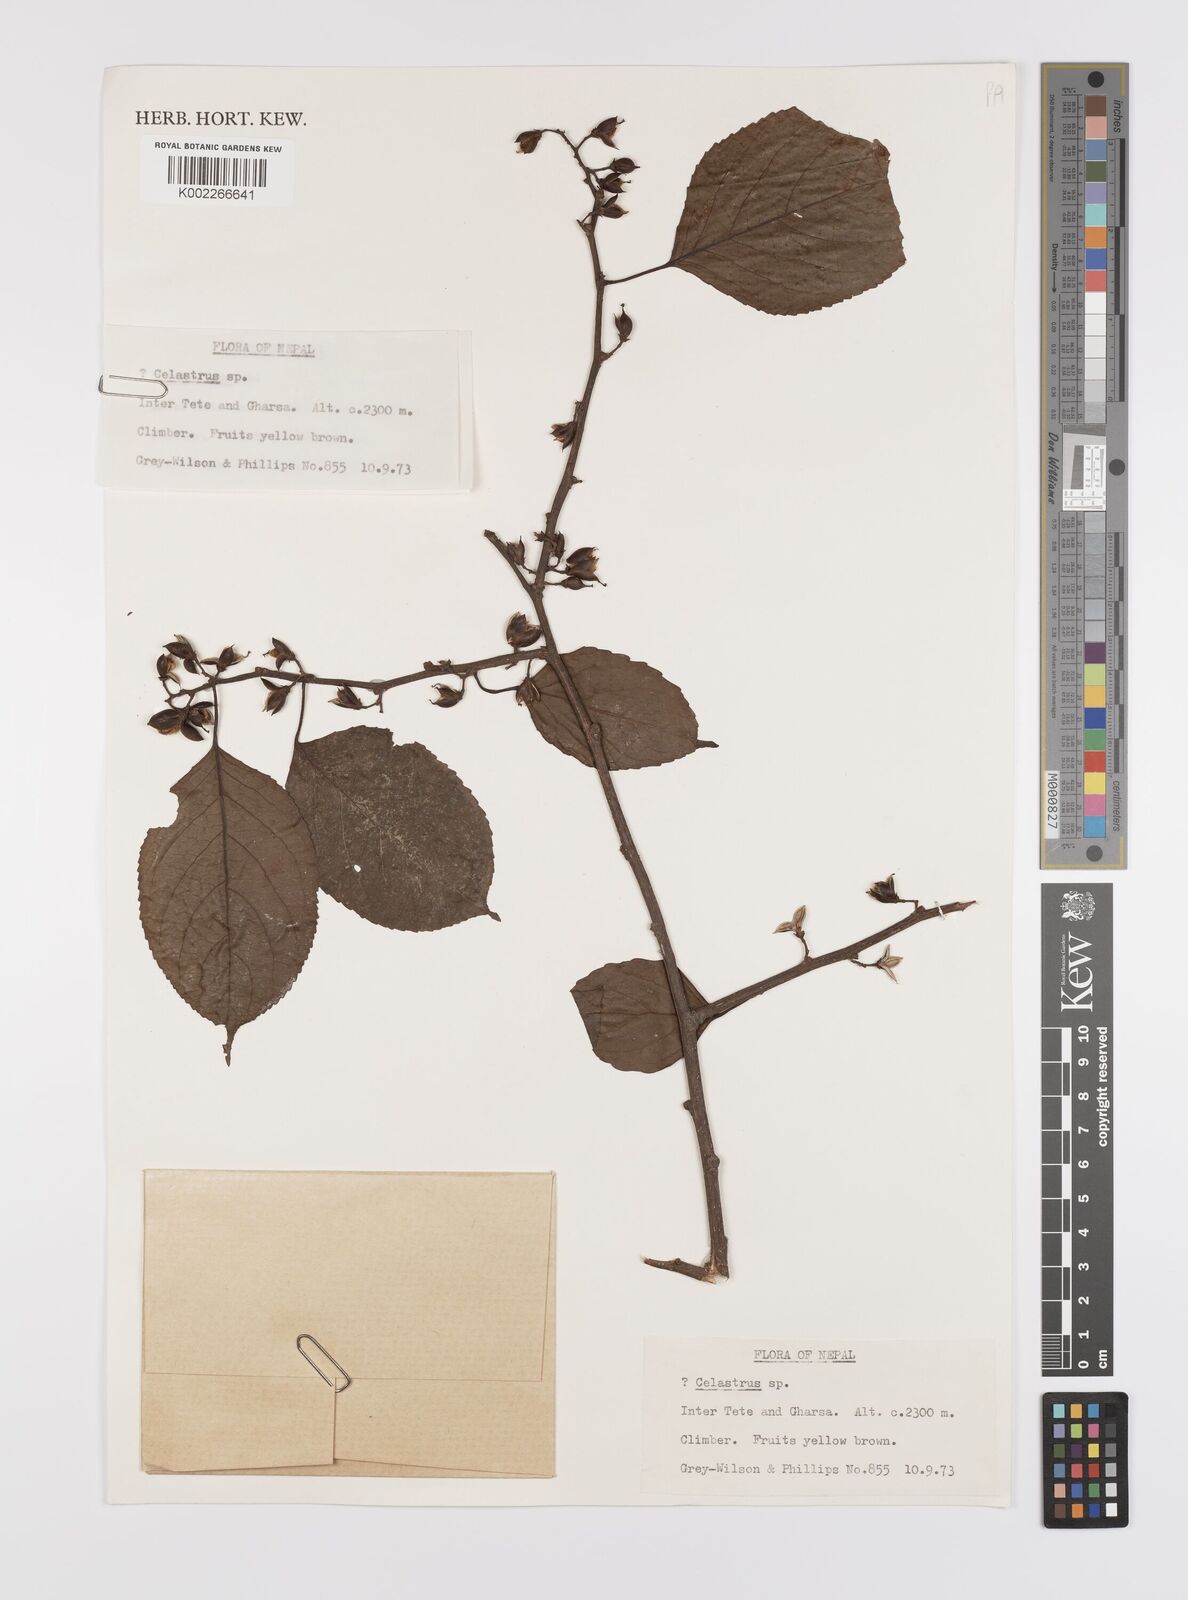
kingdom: Plantae
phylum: Tracheophyta
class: Magnoliopsida
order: Celastrales
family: Celastraceae
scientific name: Celastraceae
